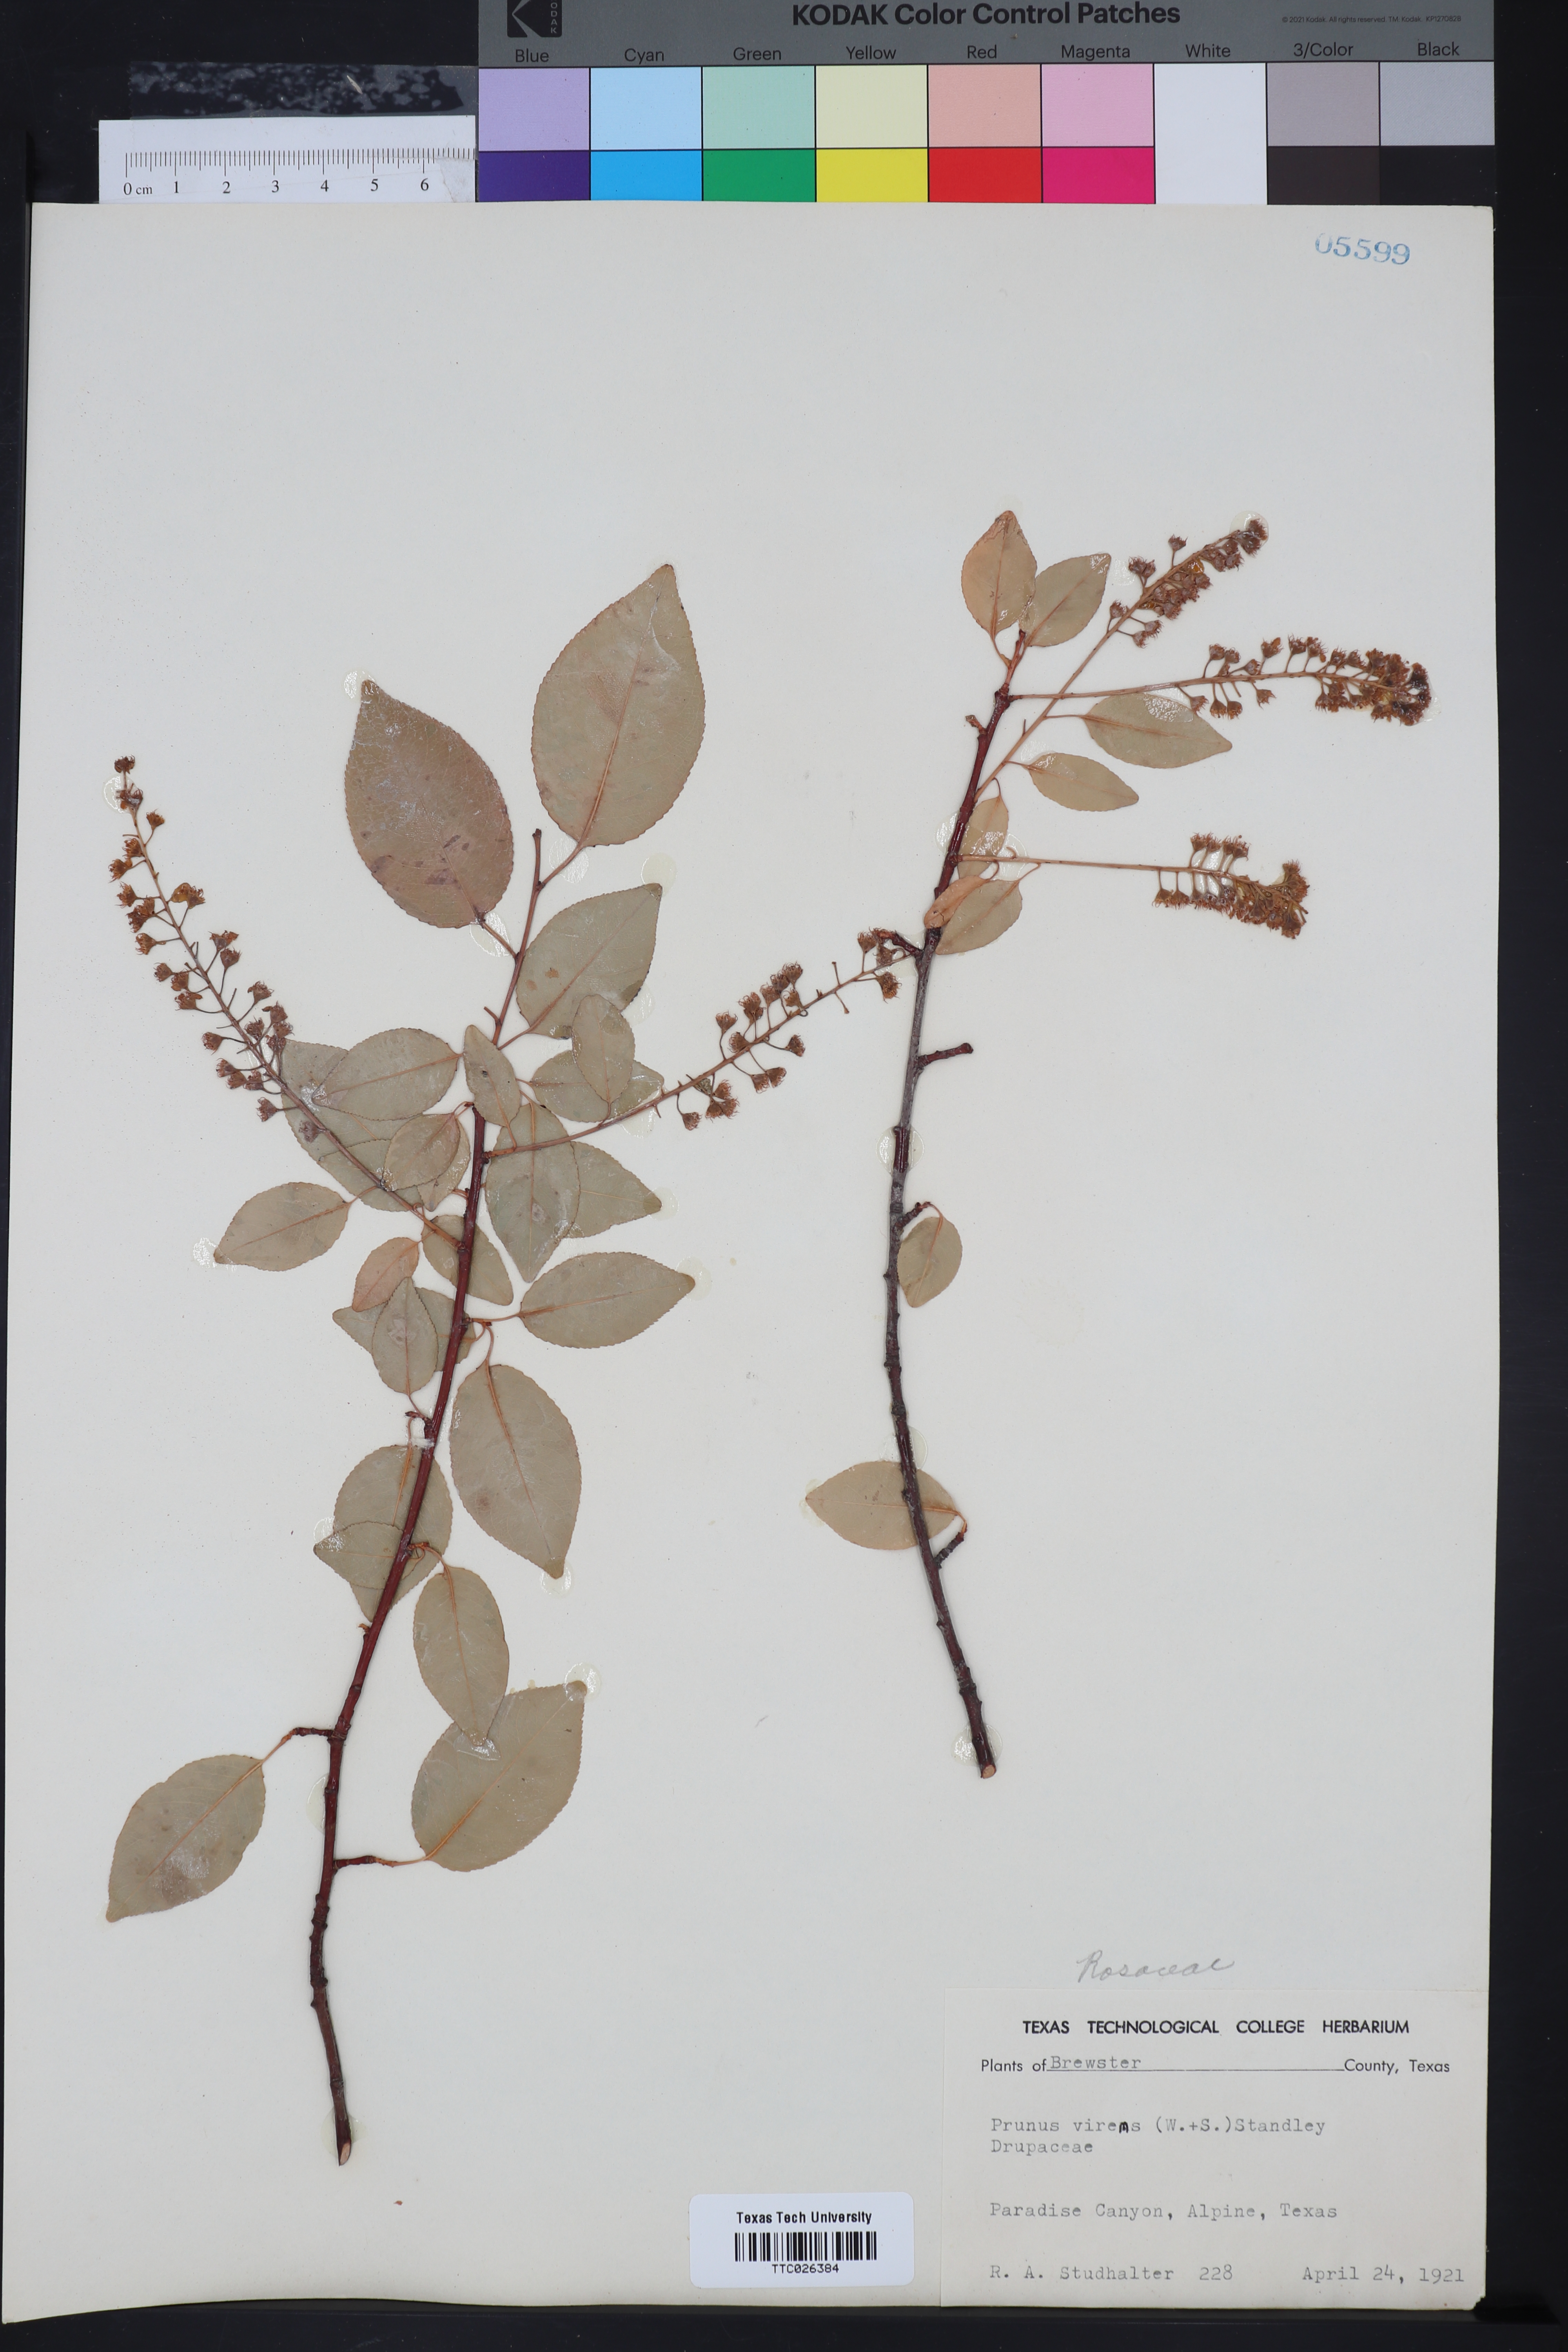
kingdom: Plantae
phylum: Tracheophyta
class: Magnoliopsida
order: Rosales
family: Rosaceae
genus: Prunus
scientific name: Prunus serotina
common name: Black cherry
